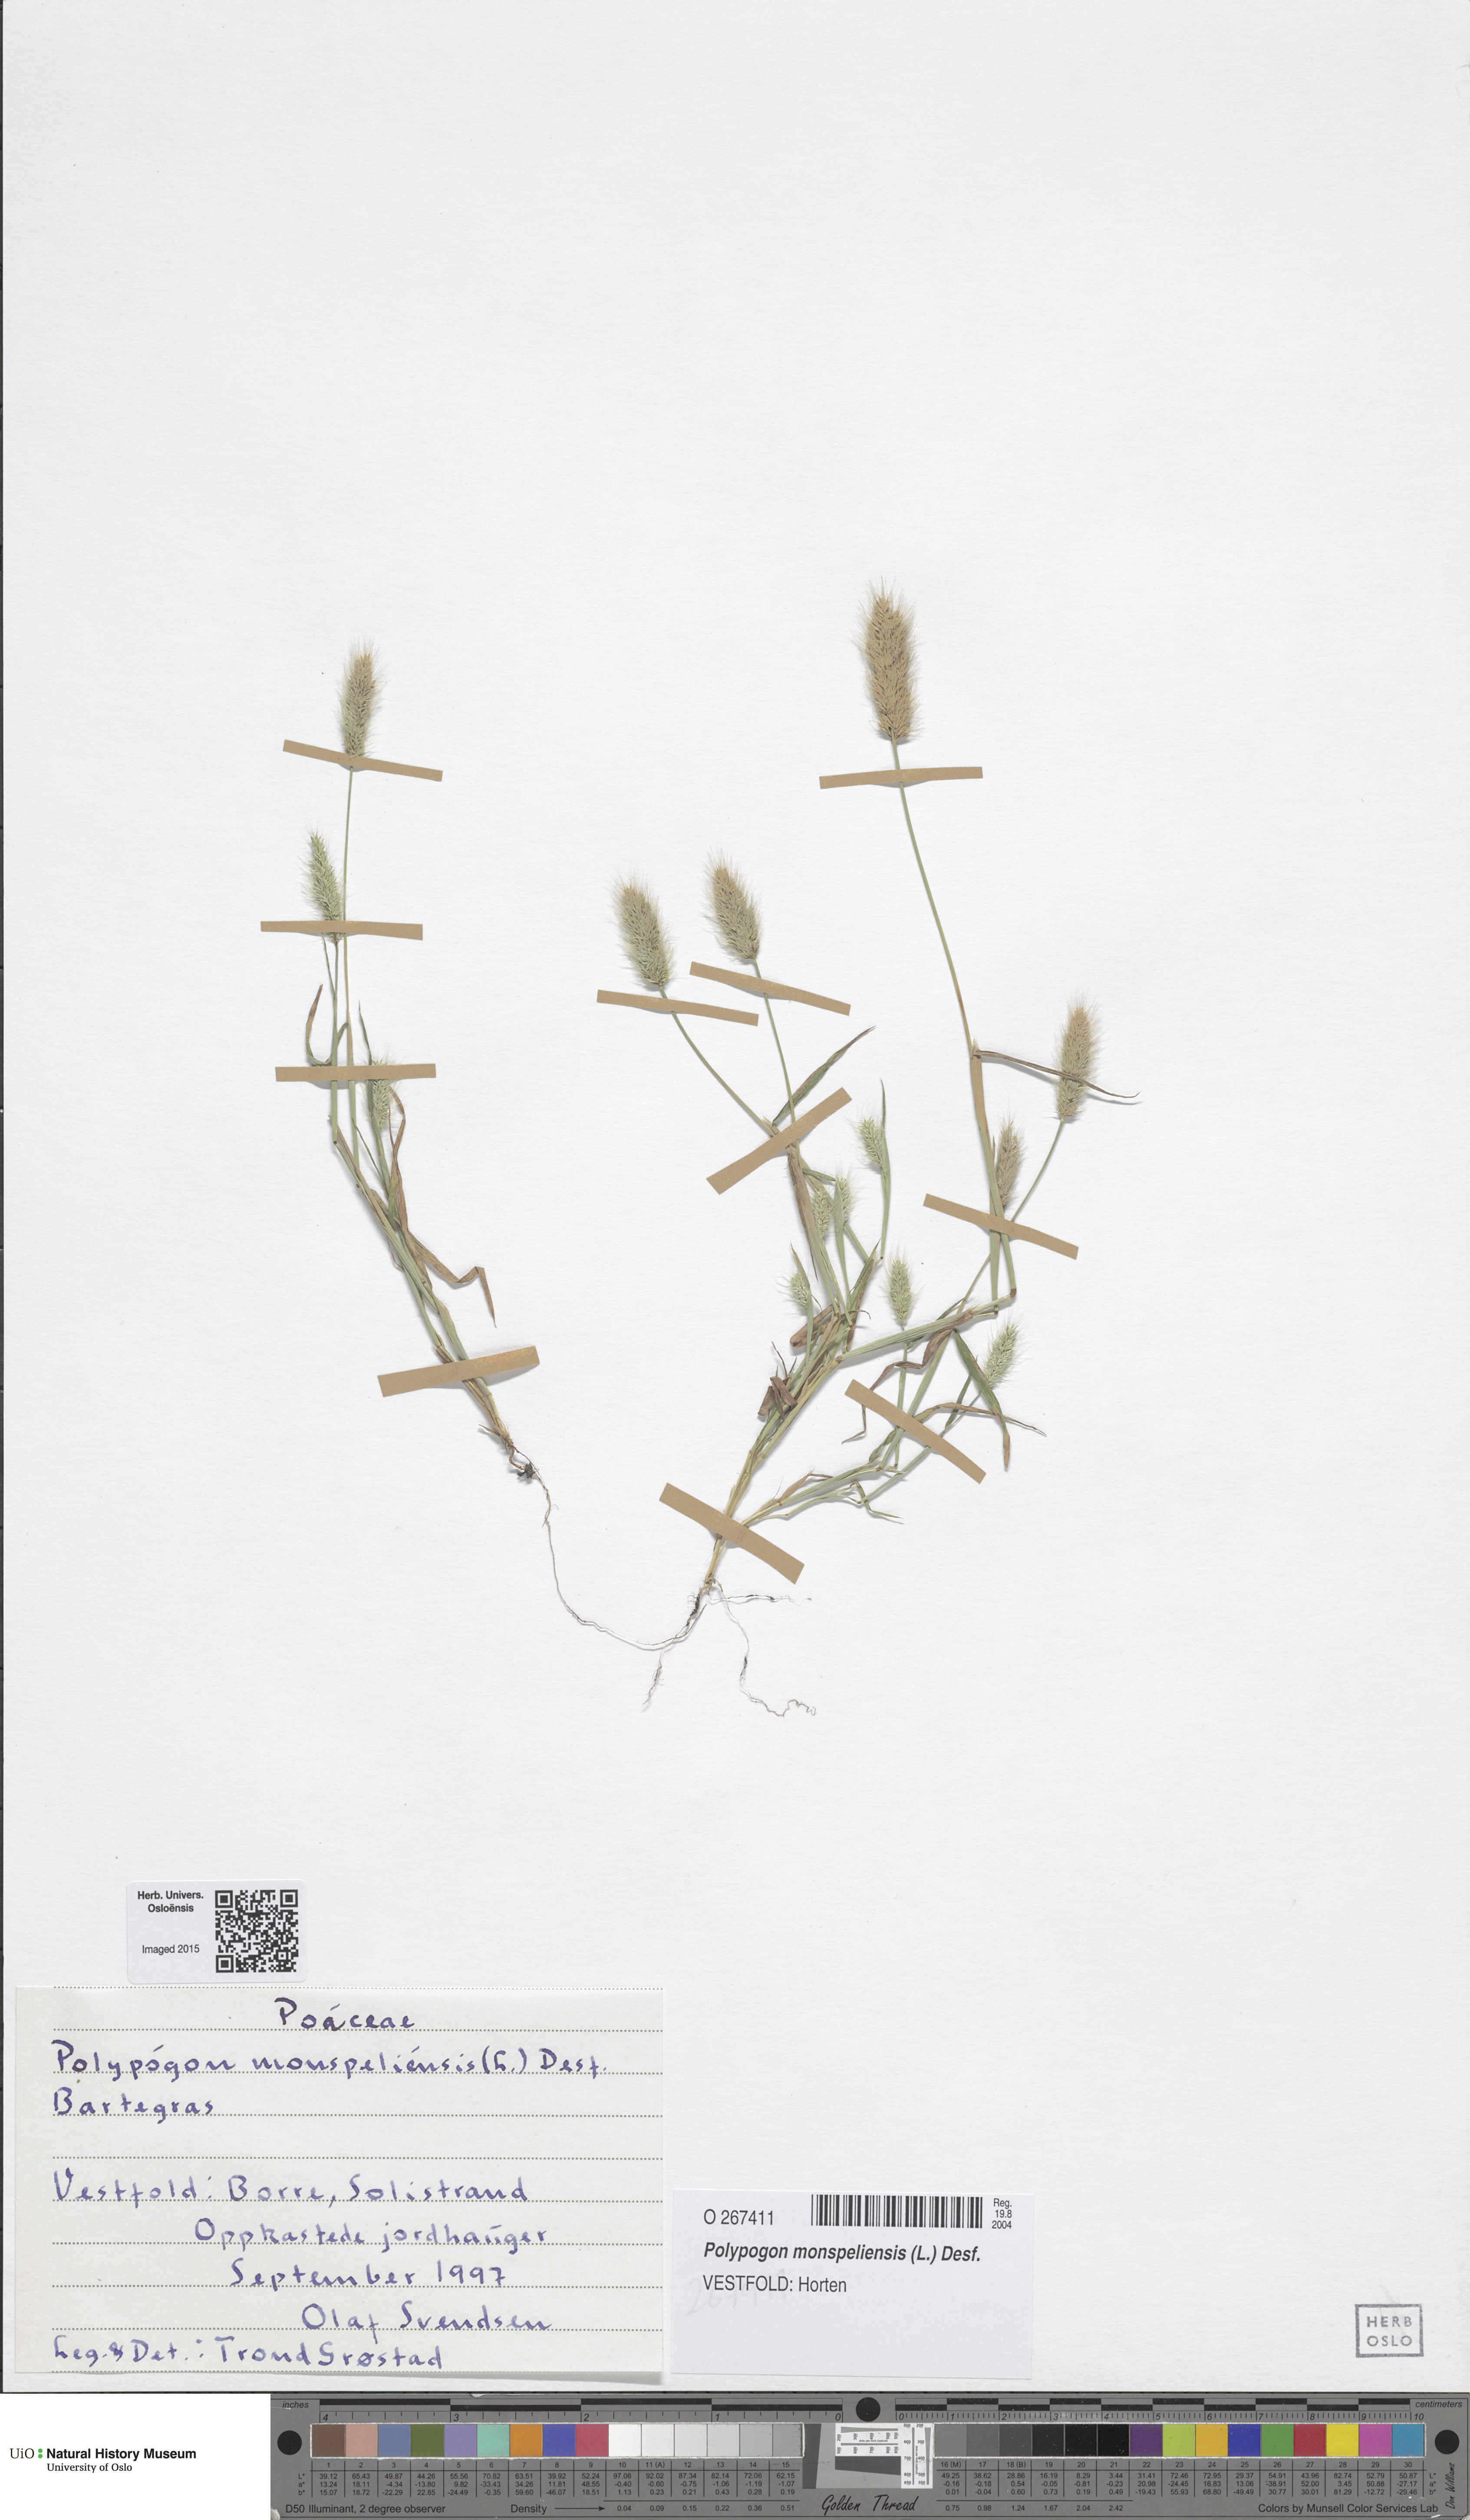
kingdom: Plantae
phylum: Tracheophyta
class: Liliopsida
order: Poales
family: Poaceae
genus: Polypogon
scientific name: Polypogon monspeliensis
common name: Annual rabbitsfoot grass
